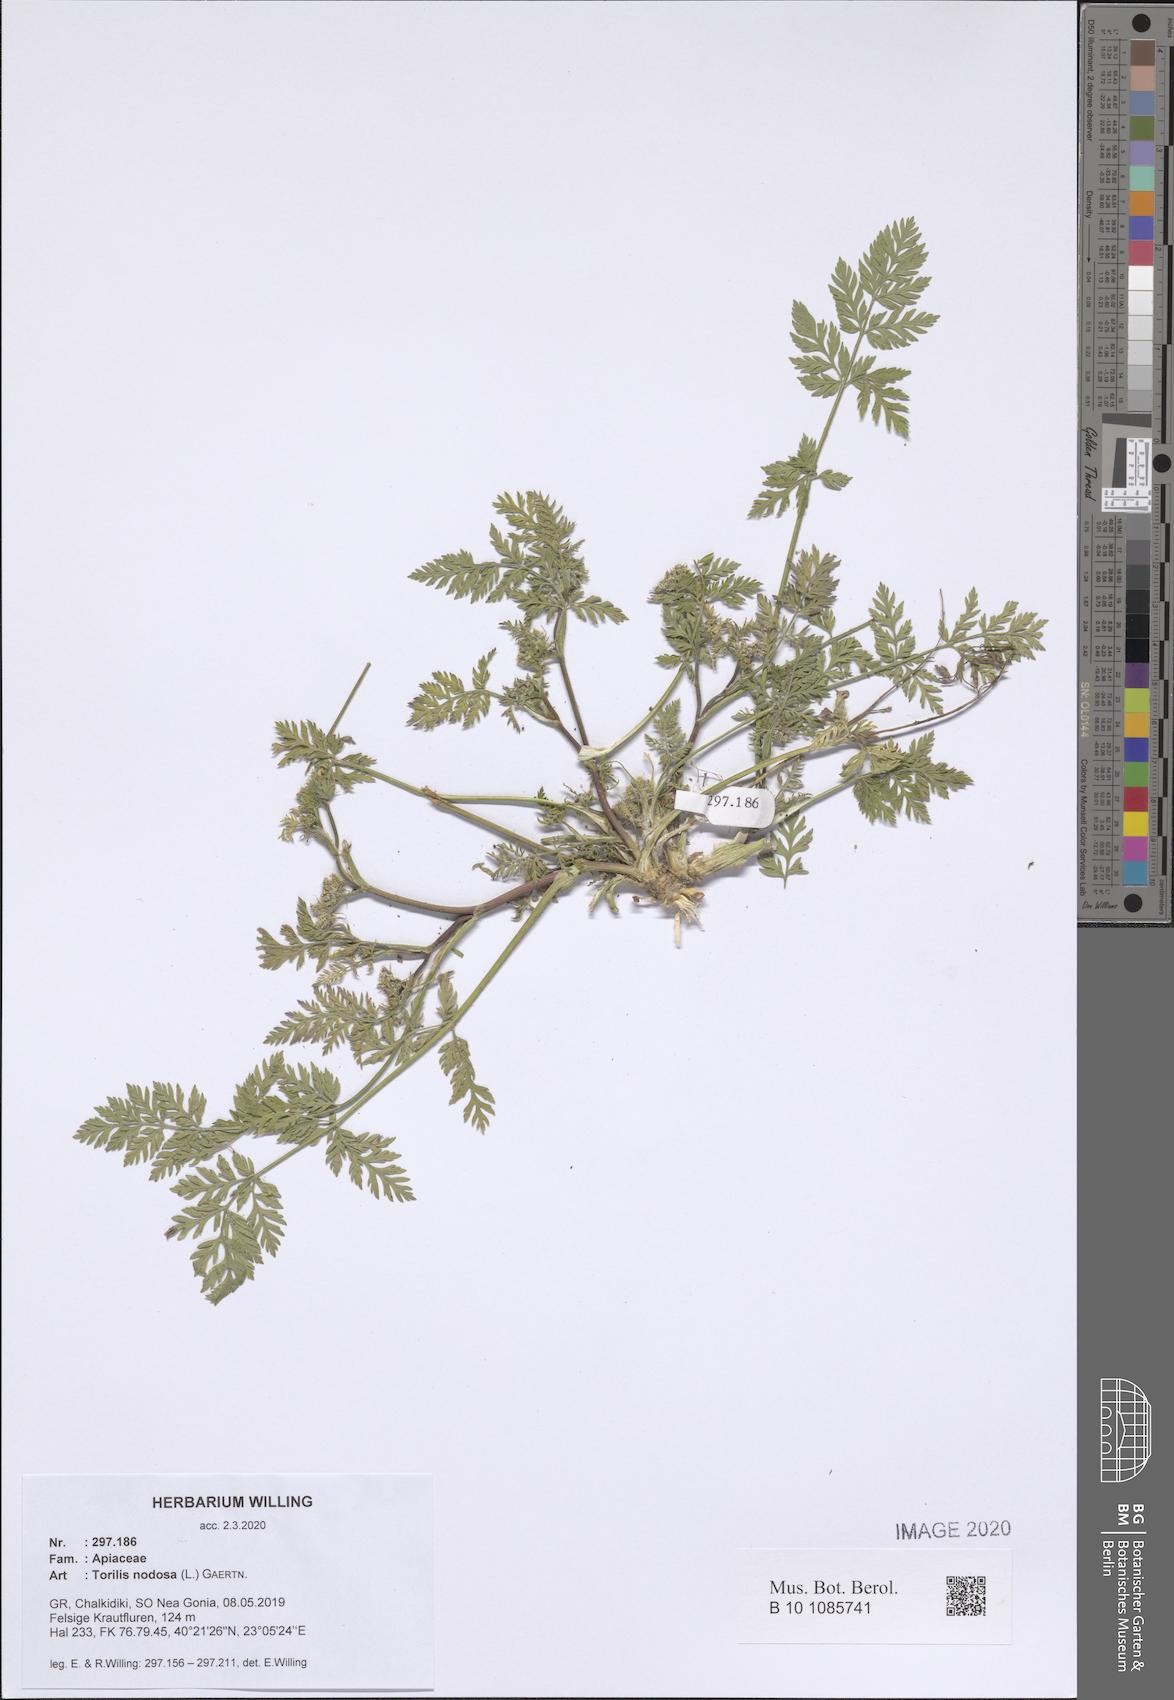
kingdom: Plantae
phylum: Tracheophyta
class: Magnoliopsida
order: Apiales
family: Apiaceae
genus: Torilis
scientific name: Torilis nodosa
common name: Knotted hedge-parsley
